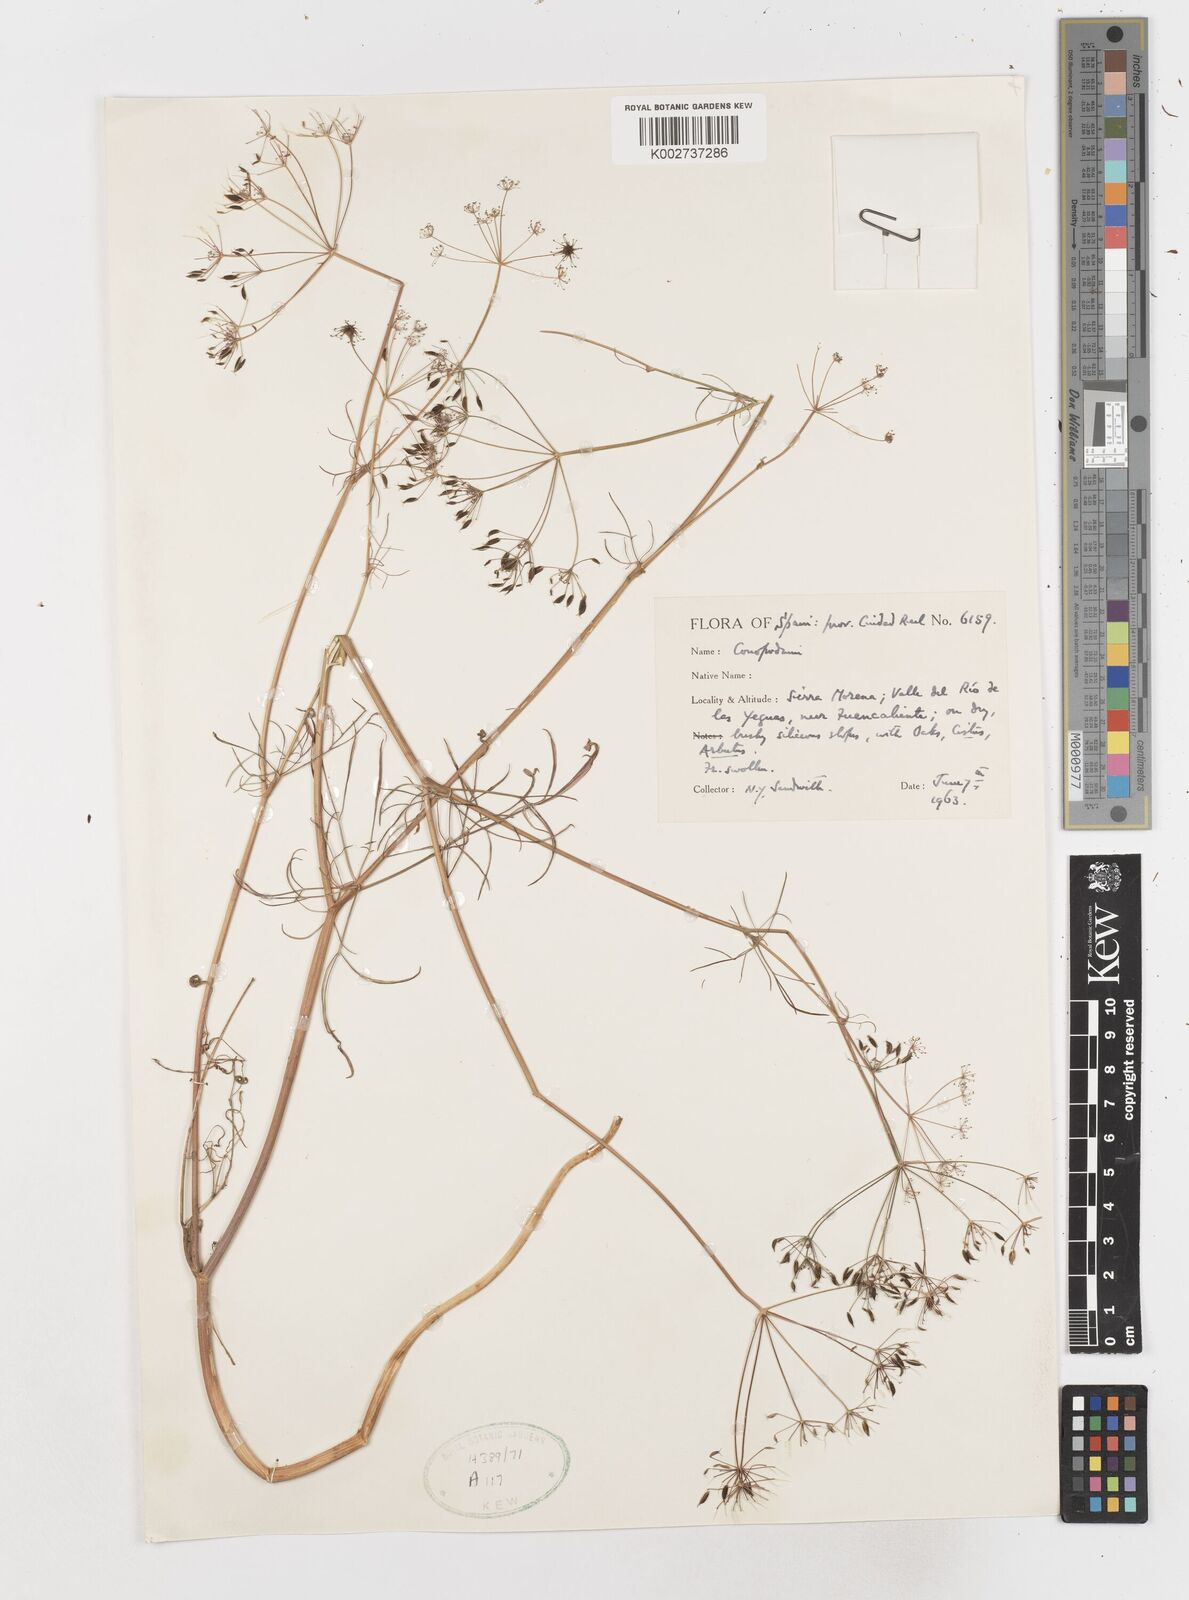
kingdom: Plantae
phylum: Tracheophyta
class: Magnoliopsida
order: Apiales
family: Apiaceae
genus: Conopodium
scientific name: Conopodium
